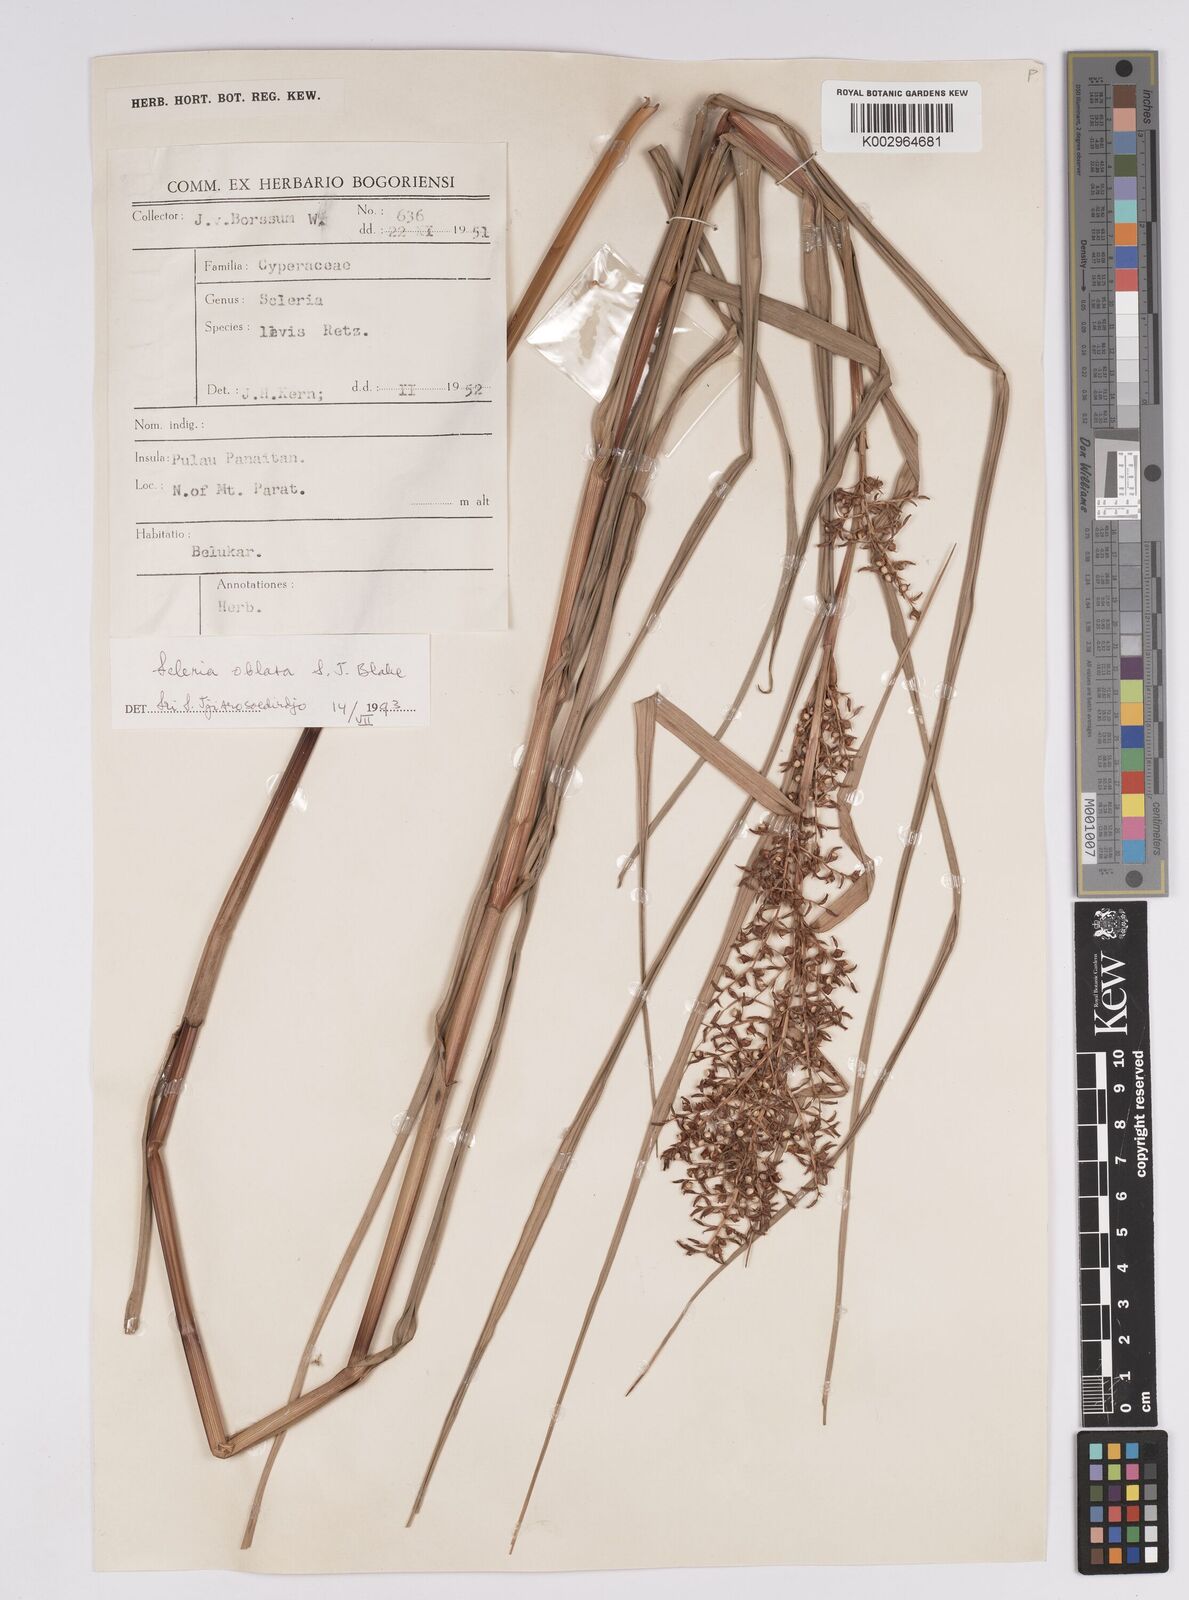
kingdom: Plantae
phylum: Tracheophyta
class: Liliopsida
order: Poales
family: Cyperaceae
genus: Scleria
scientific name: Scleria oblata
